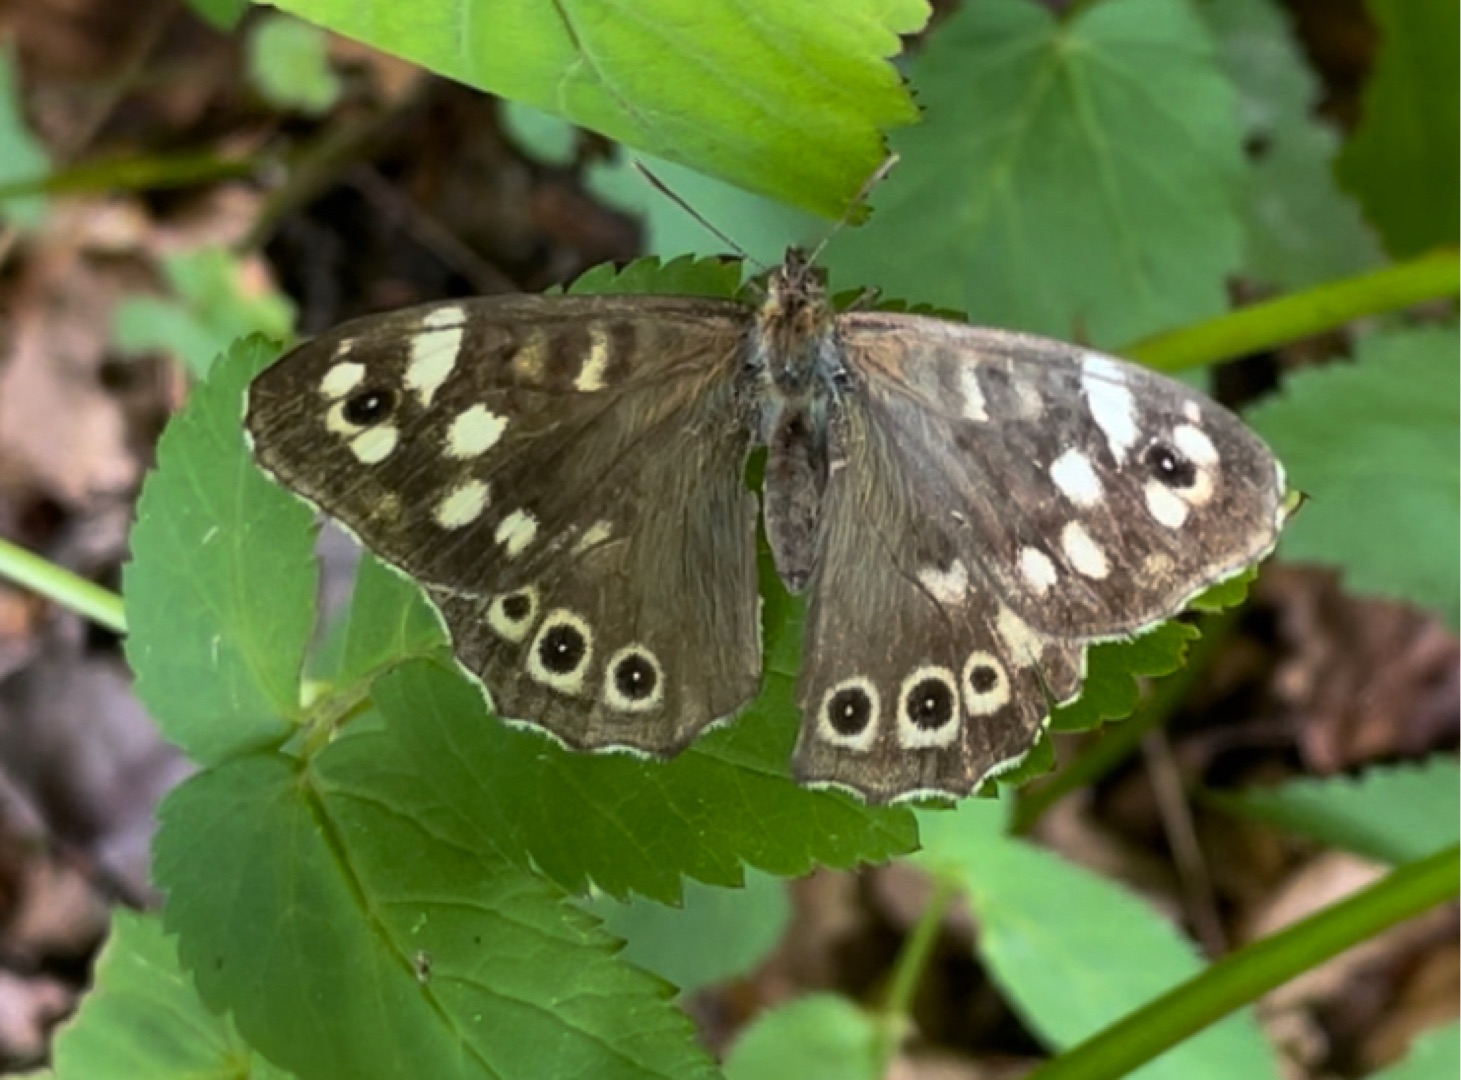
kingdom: Animalia
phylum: Arthropoda
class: Insecta
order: Lepidoptera
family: Nymphalidae
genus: Pararge
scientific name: Pararge aegeria
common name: Skovrandøje
